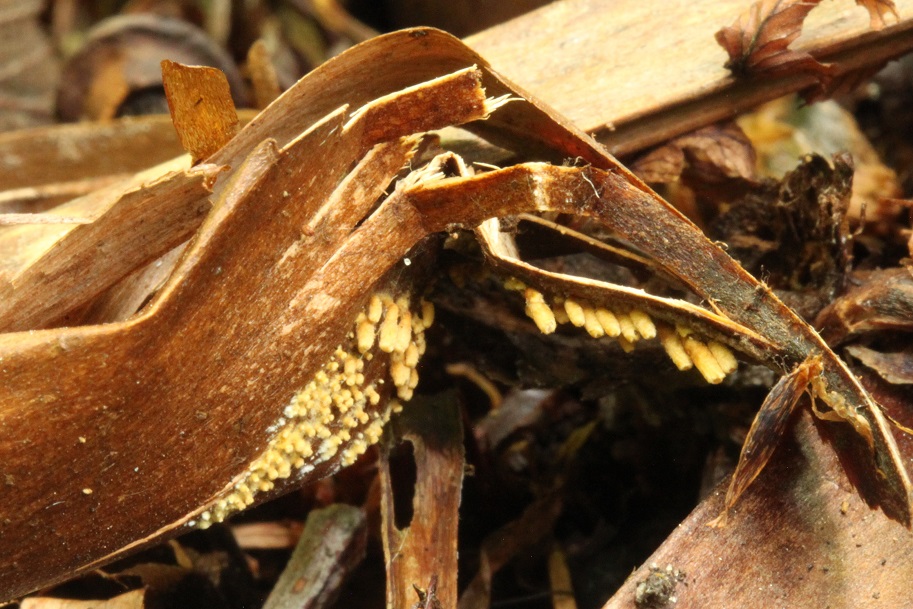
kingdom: Fungi
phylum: Basidiomycota
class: Agaricomycetes
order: Agaricales
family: Niaceae
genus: Woldmaria
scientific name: Woldmaria filicina
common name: bregnerør
